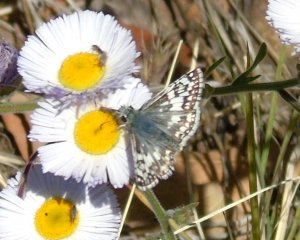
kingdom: Animalia
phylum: Arthropoda
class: Insecta
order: Lepidoptera
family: Hesperiidae
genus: Pyrgus
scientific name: Pyrgus communis
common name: Common Checkered-Skipper
